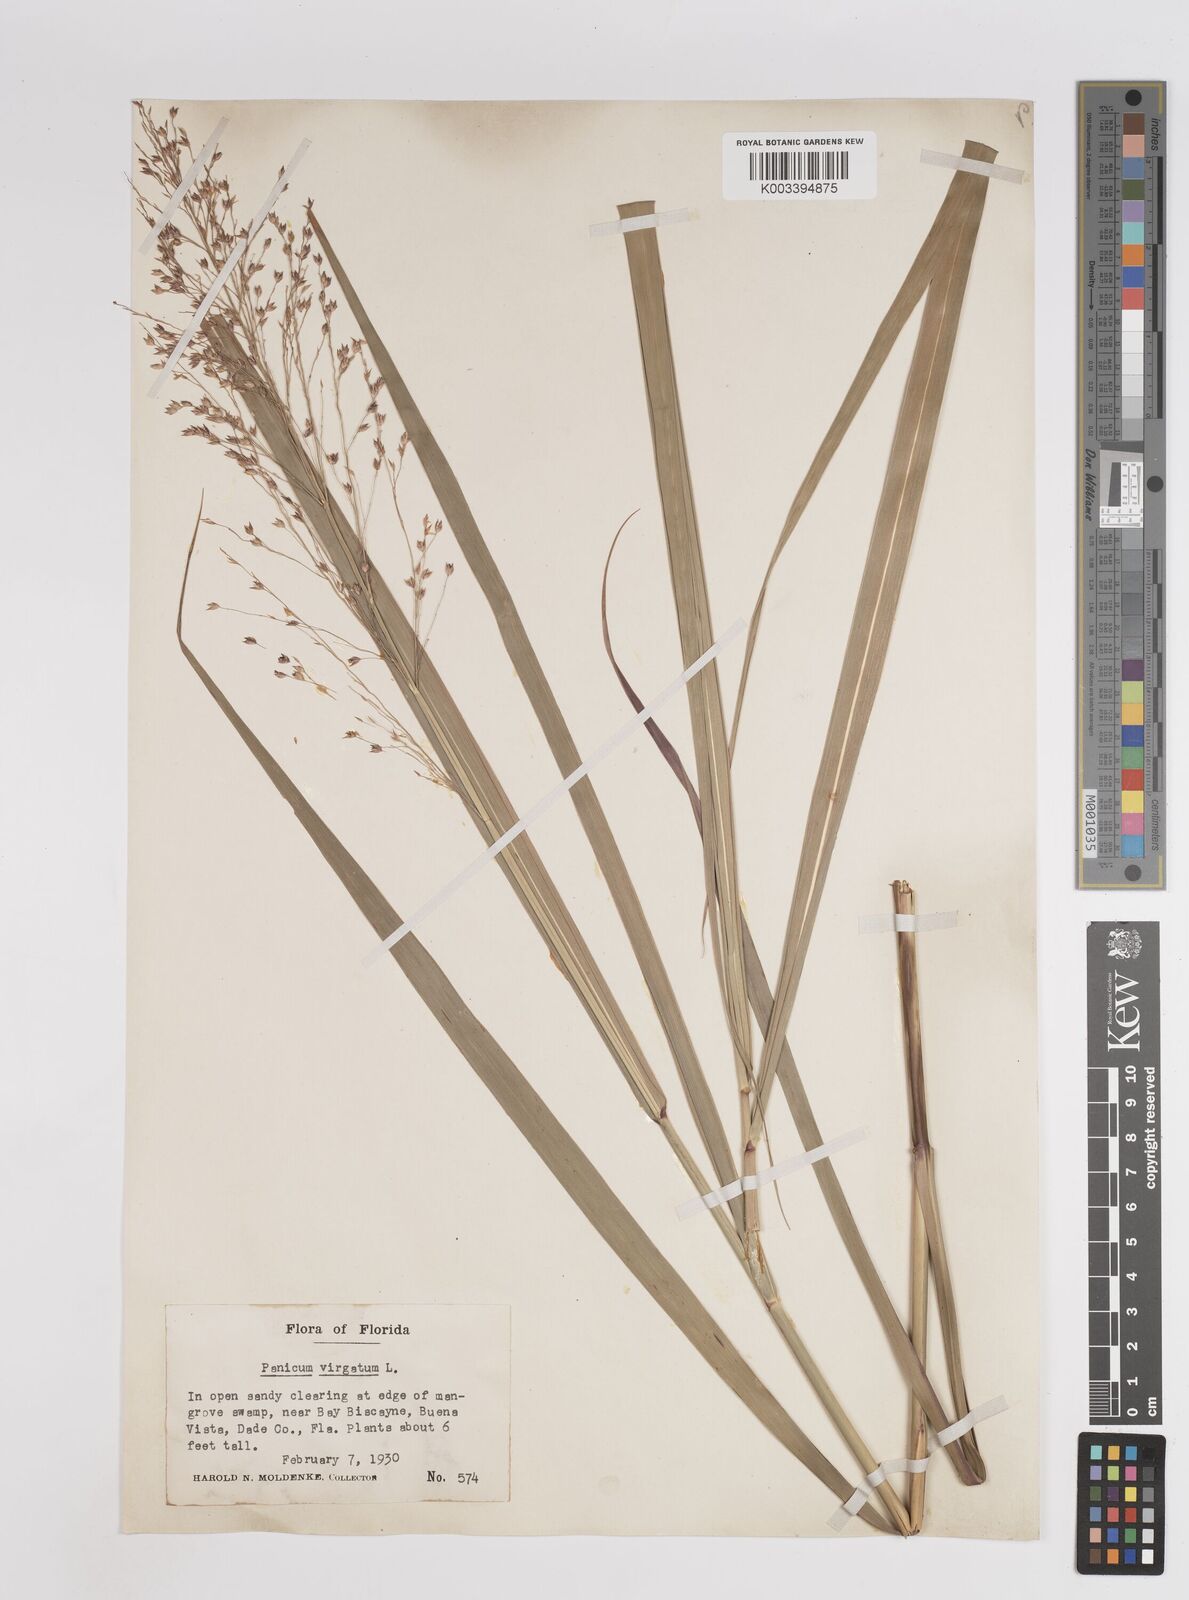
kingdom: Plantae
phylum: Tracheophyta
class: Liliopsida
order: Poales
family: Poaceae
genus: Panicum
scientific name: Panicum virgatum
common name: Switchgrass
